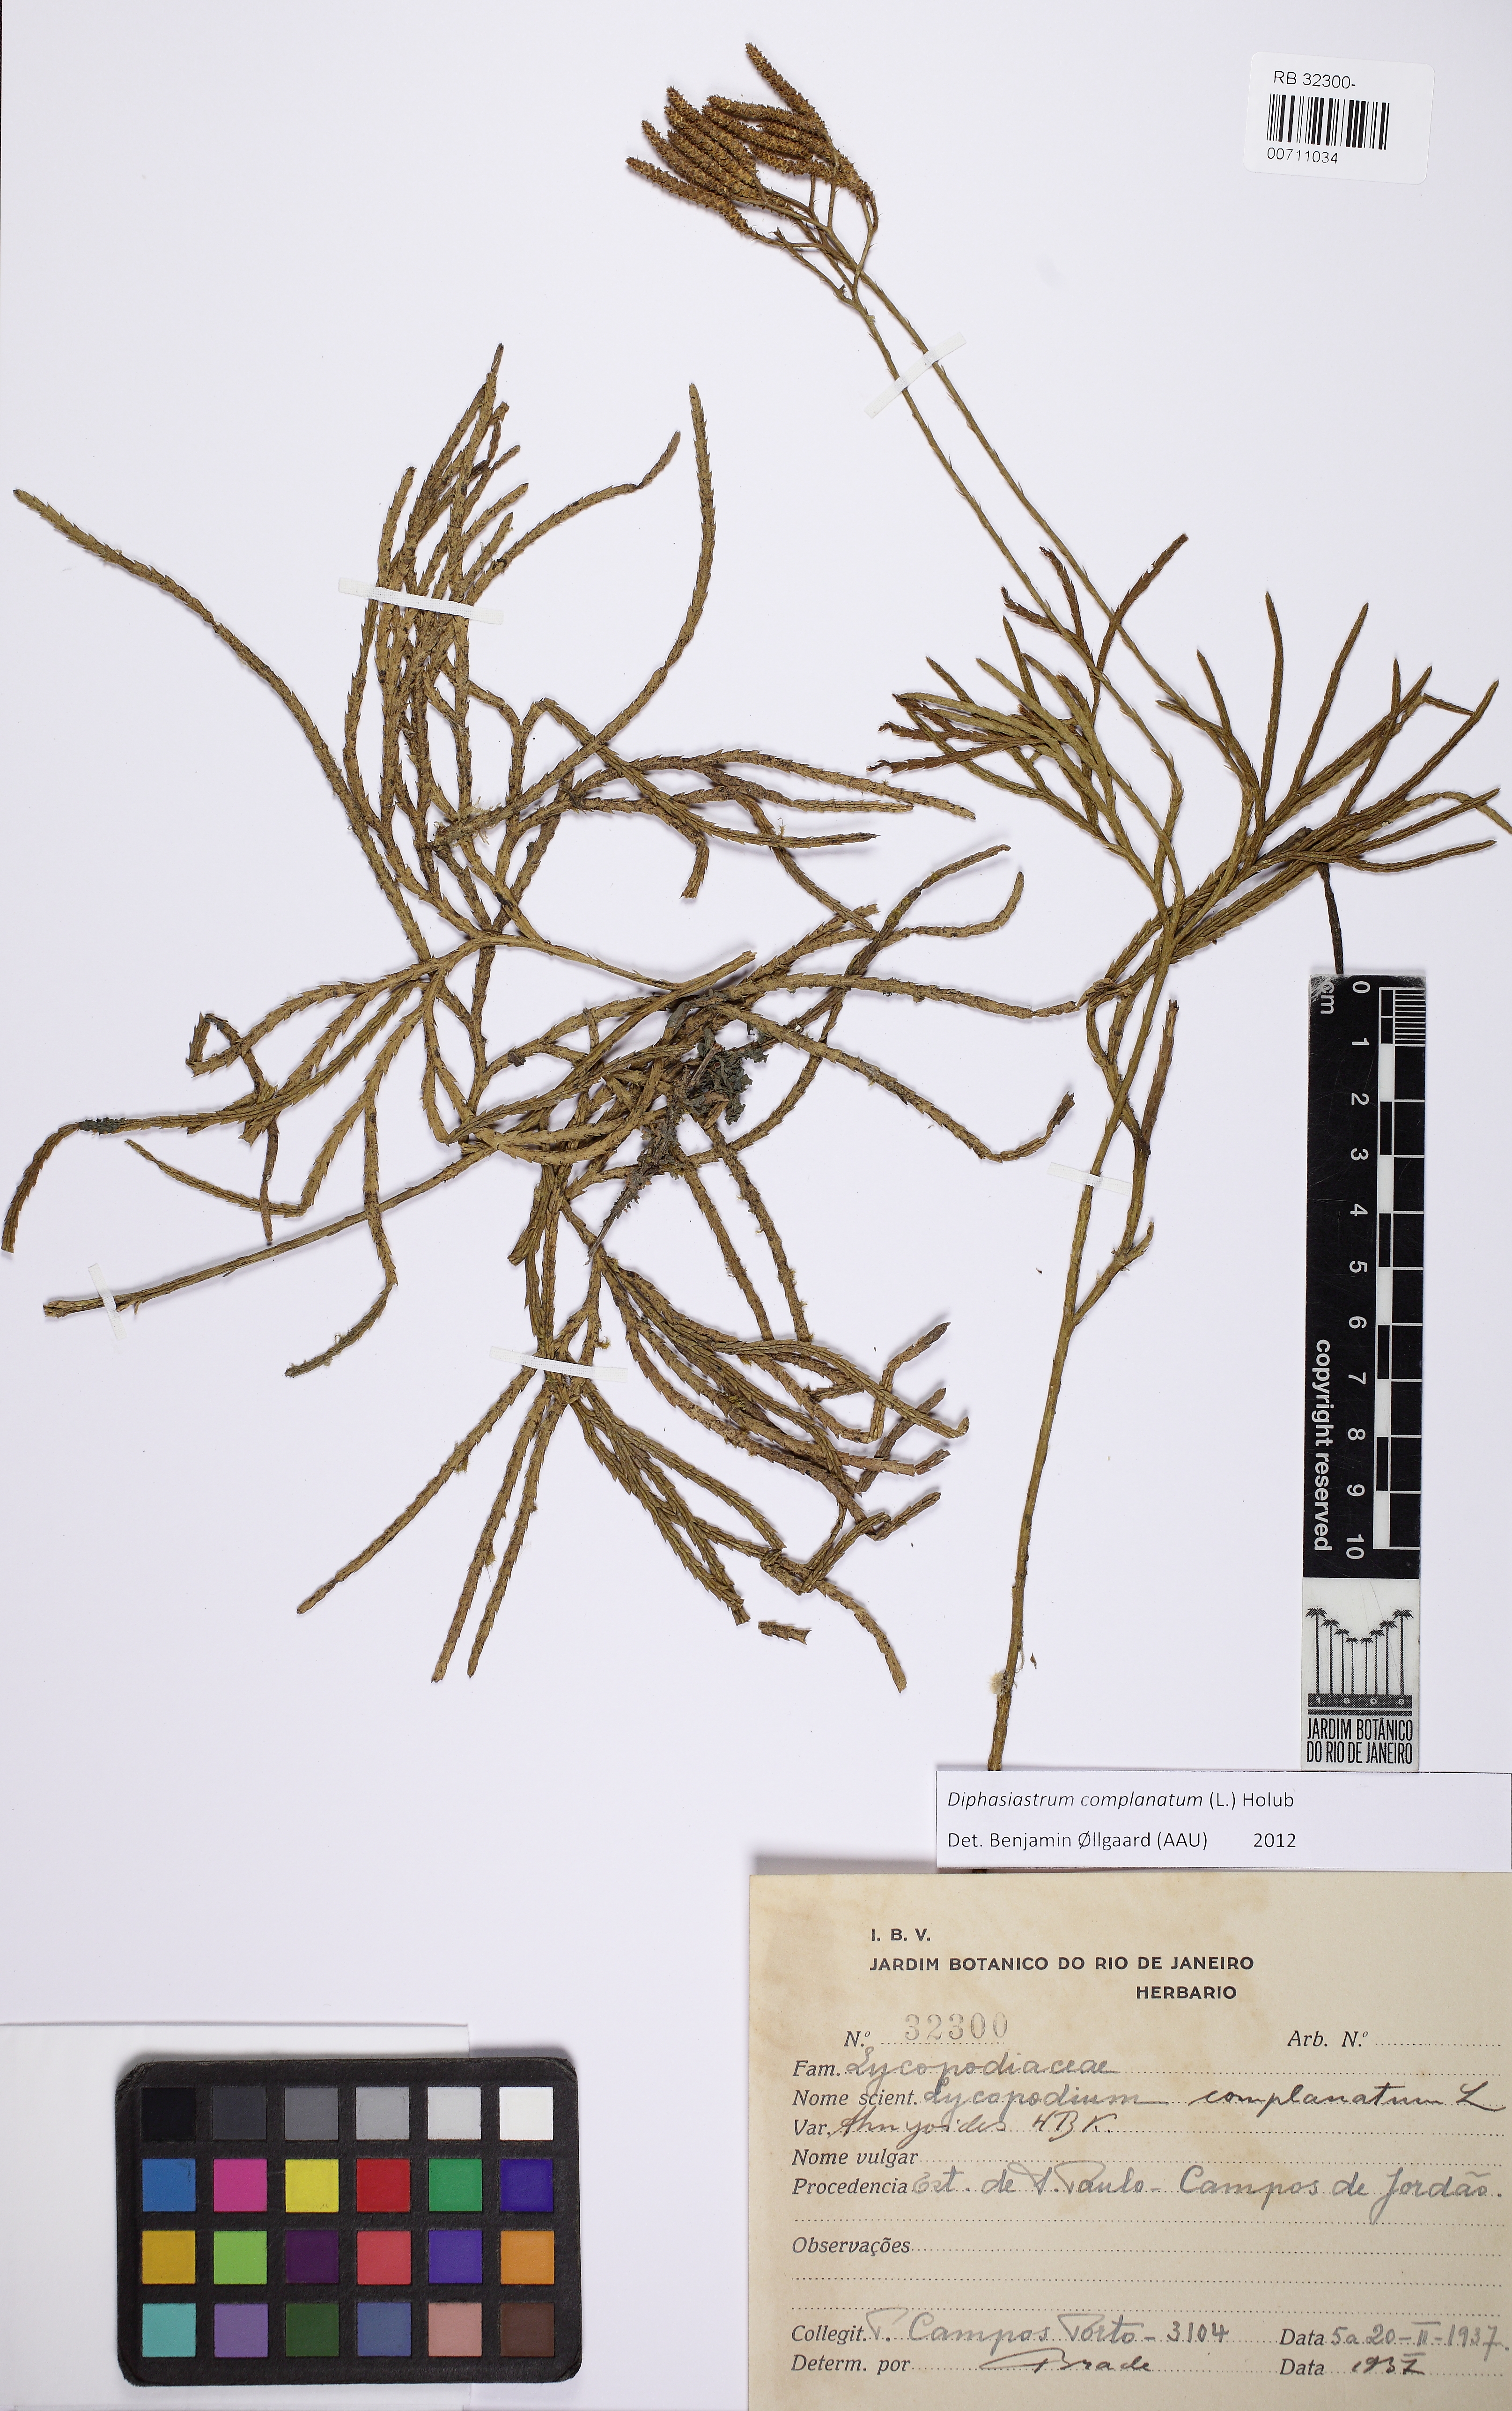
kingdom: Plantae
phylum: Tracheophyta
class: Lycopodiopsida
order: Lycopodiales
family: Lycopodiaceae
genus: Diphasiastrum
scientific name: Diphasiastrum complanatum
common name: Northern running-pine
